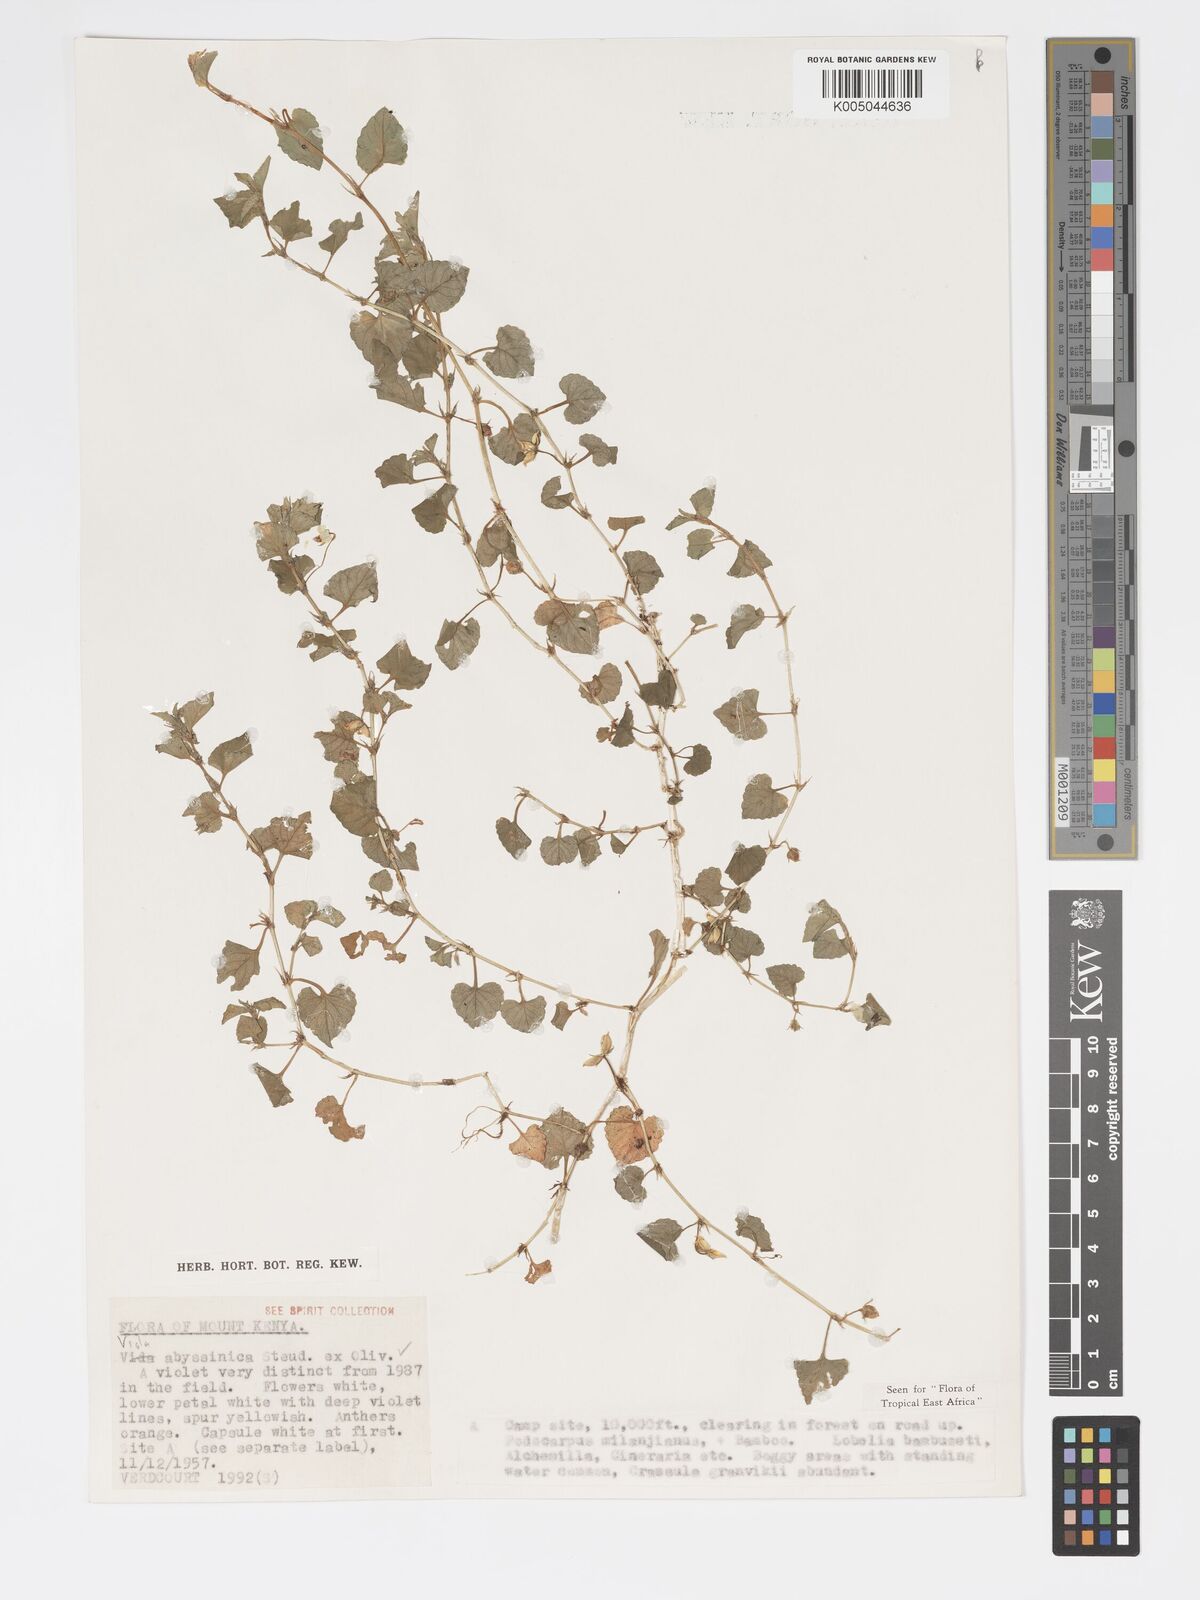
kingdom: Plantae
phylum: Tracheophyta
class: Magnoliopsida
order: Malpighiales
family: Violaceae
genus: Viola
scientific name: Viola abyssinica
